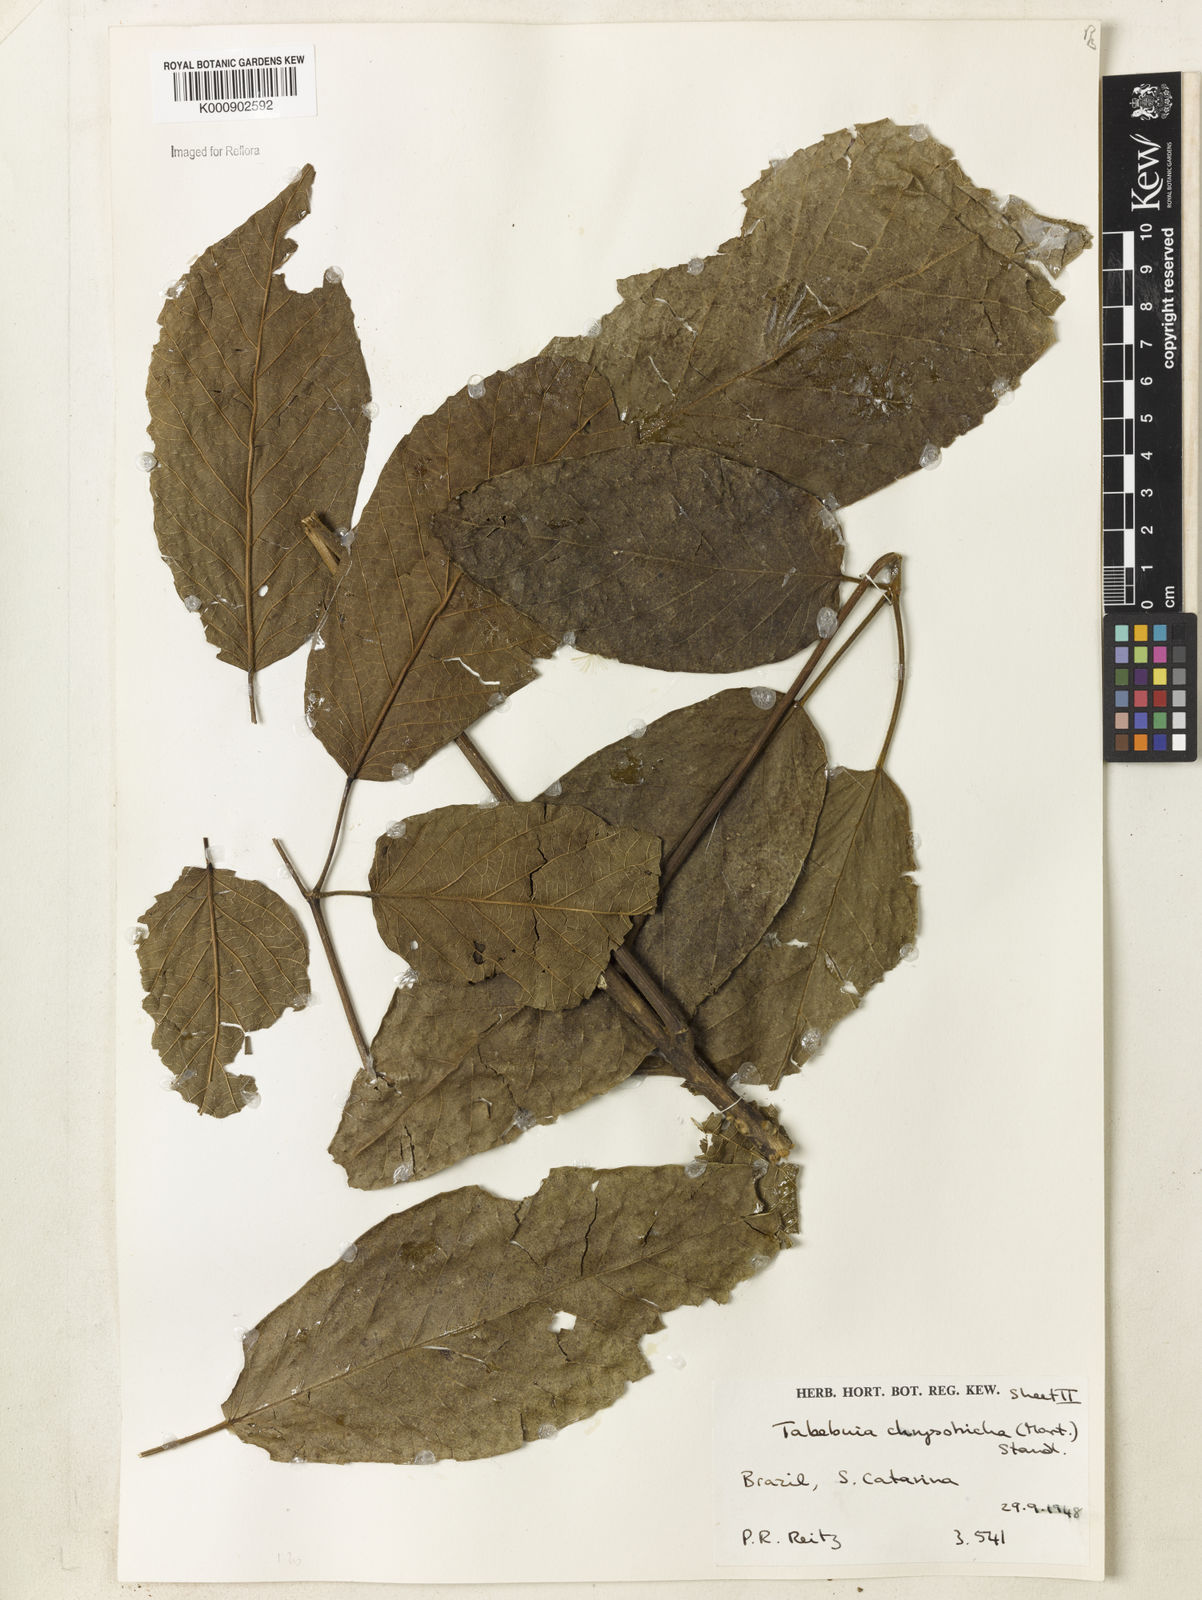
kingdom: Plantae
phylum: Tracheophyta
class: Magnoliopsida
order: Lamiales
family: Bignoniaceae
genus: Handroanthus
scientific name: Handroanthus chrysotrichus
